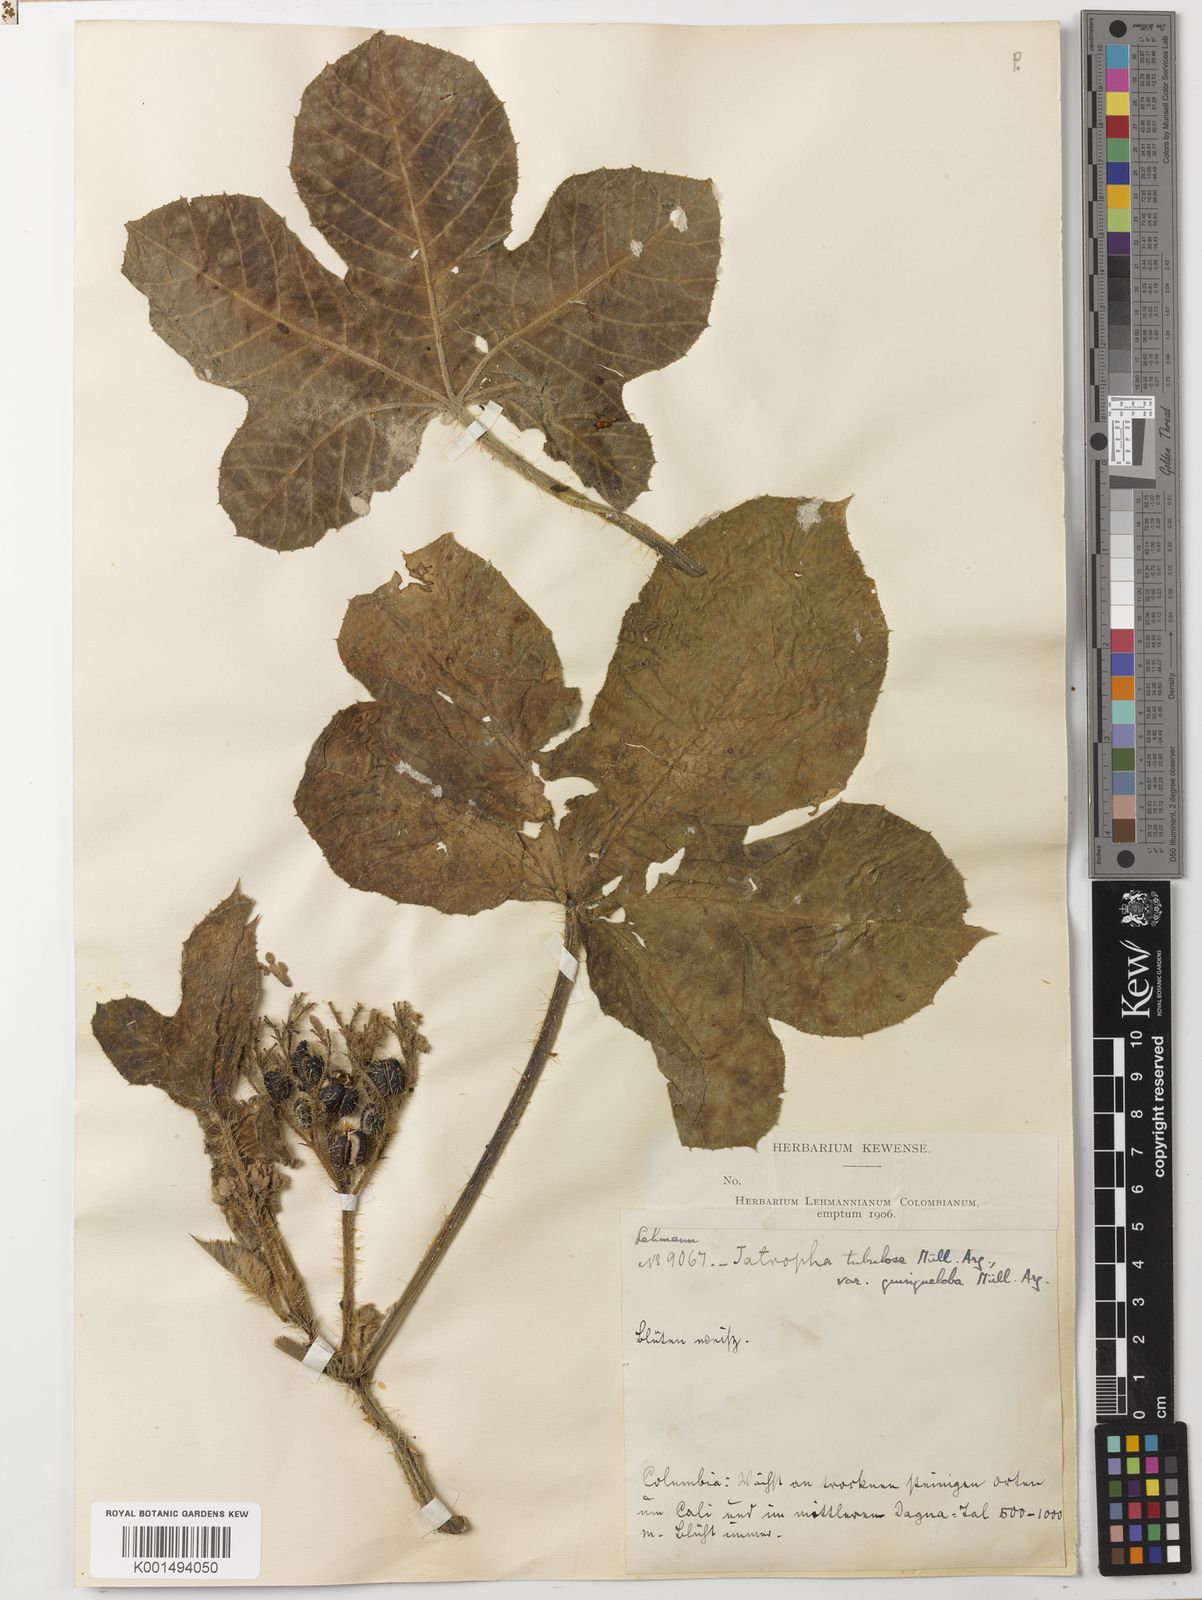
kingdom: Plantae
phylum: Tracheophyta
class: Magnoliopsida
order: Malpighiales
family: Euphorbiaceae
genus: Cnidoscolus
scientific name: Cnidoscolus tubulosus
